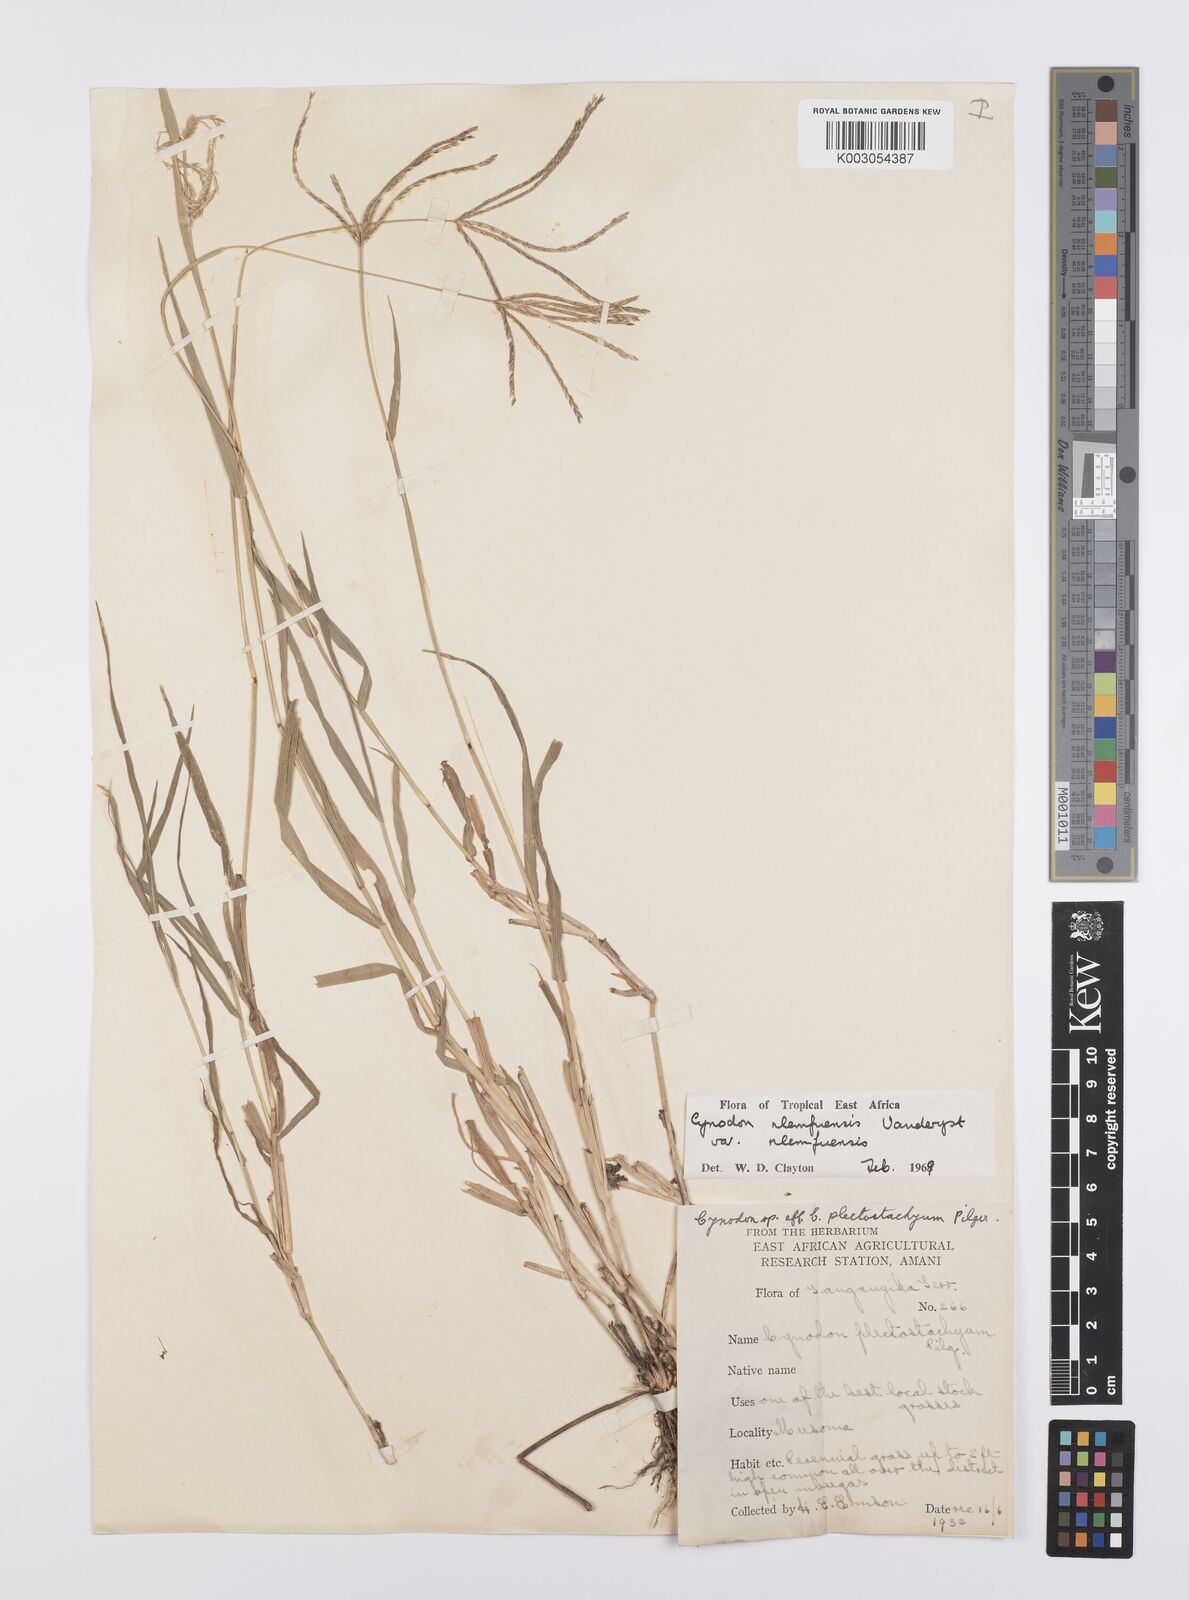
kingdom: Plantae
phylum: Tracheophyta
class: Liliopsida
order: Poales
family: Poaceae
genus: Cynodon
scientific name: Cynodon nlemfuensis
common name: African bermudagrass
